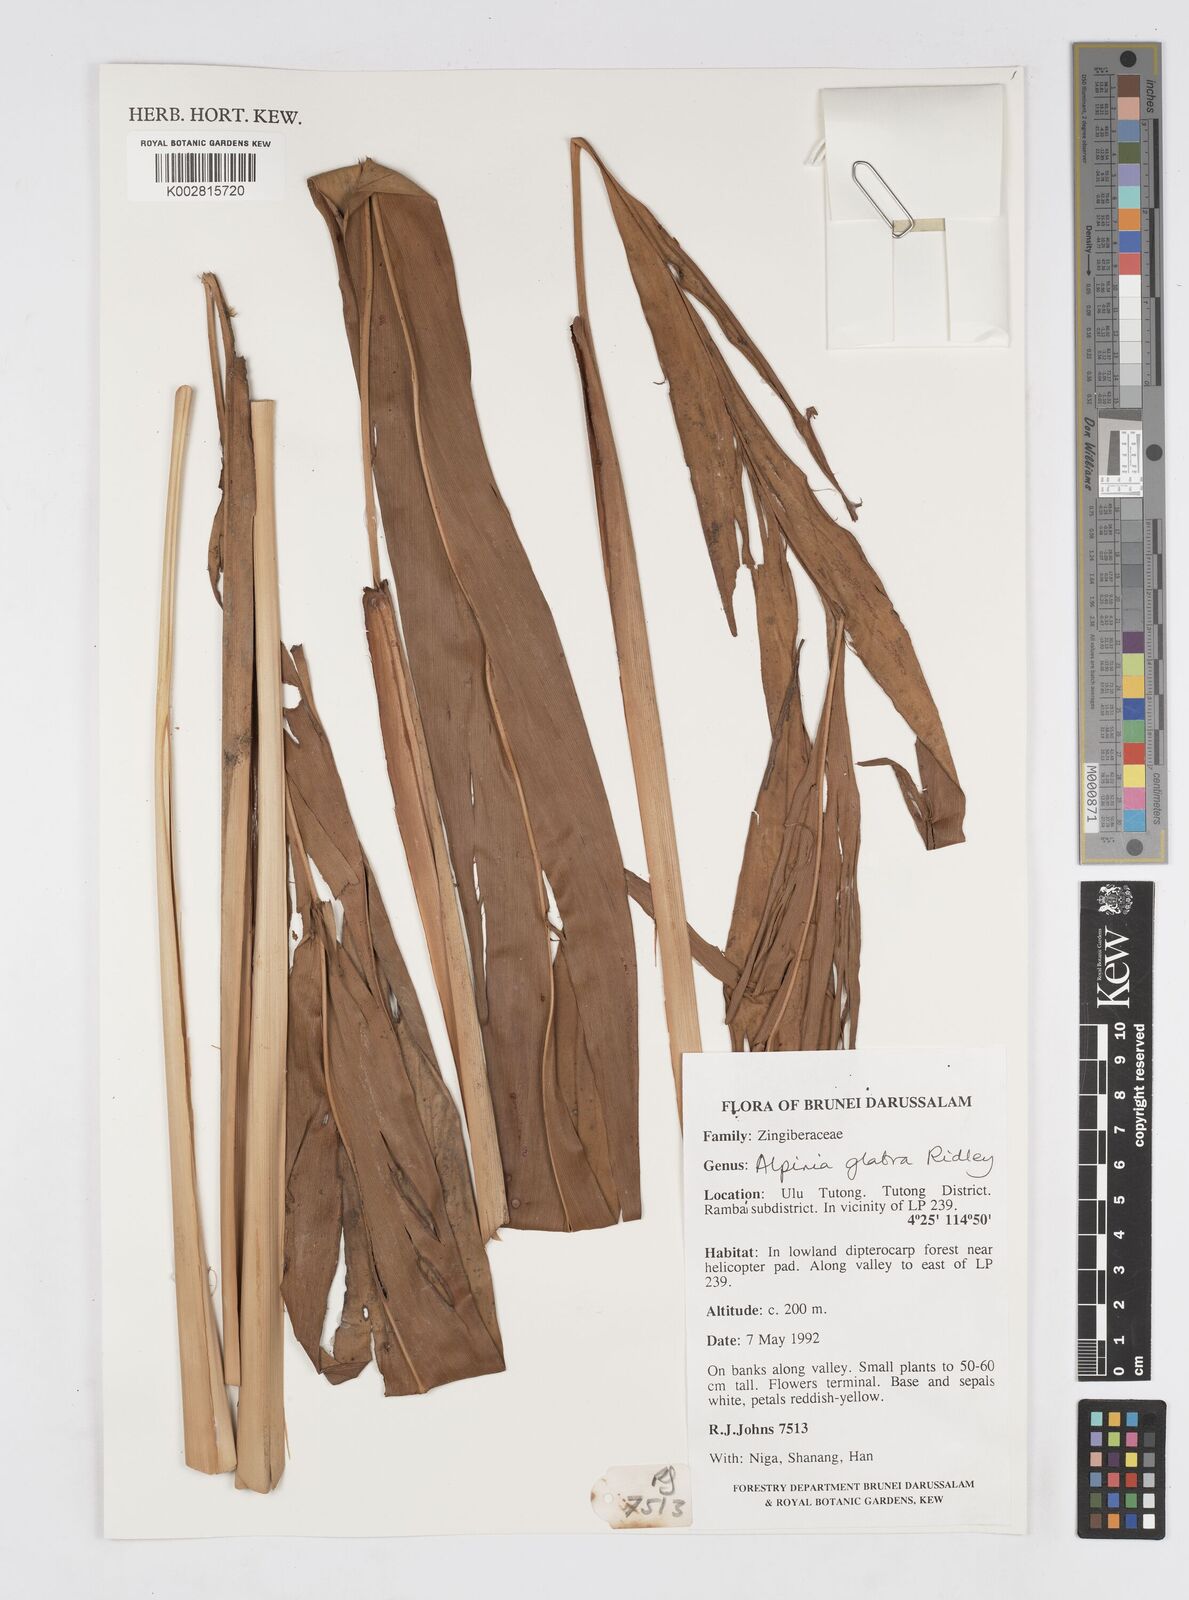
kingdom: Plantae
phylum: Tracheophyta
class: Liliopsida
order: Zingiberales
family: Zingiberaceae
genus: Alpinia
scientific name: Alpinia glabra
